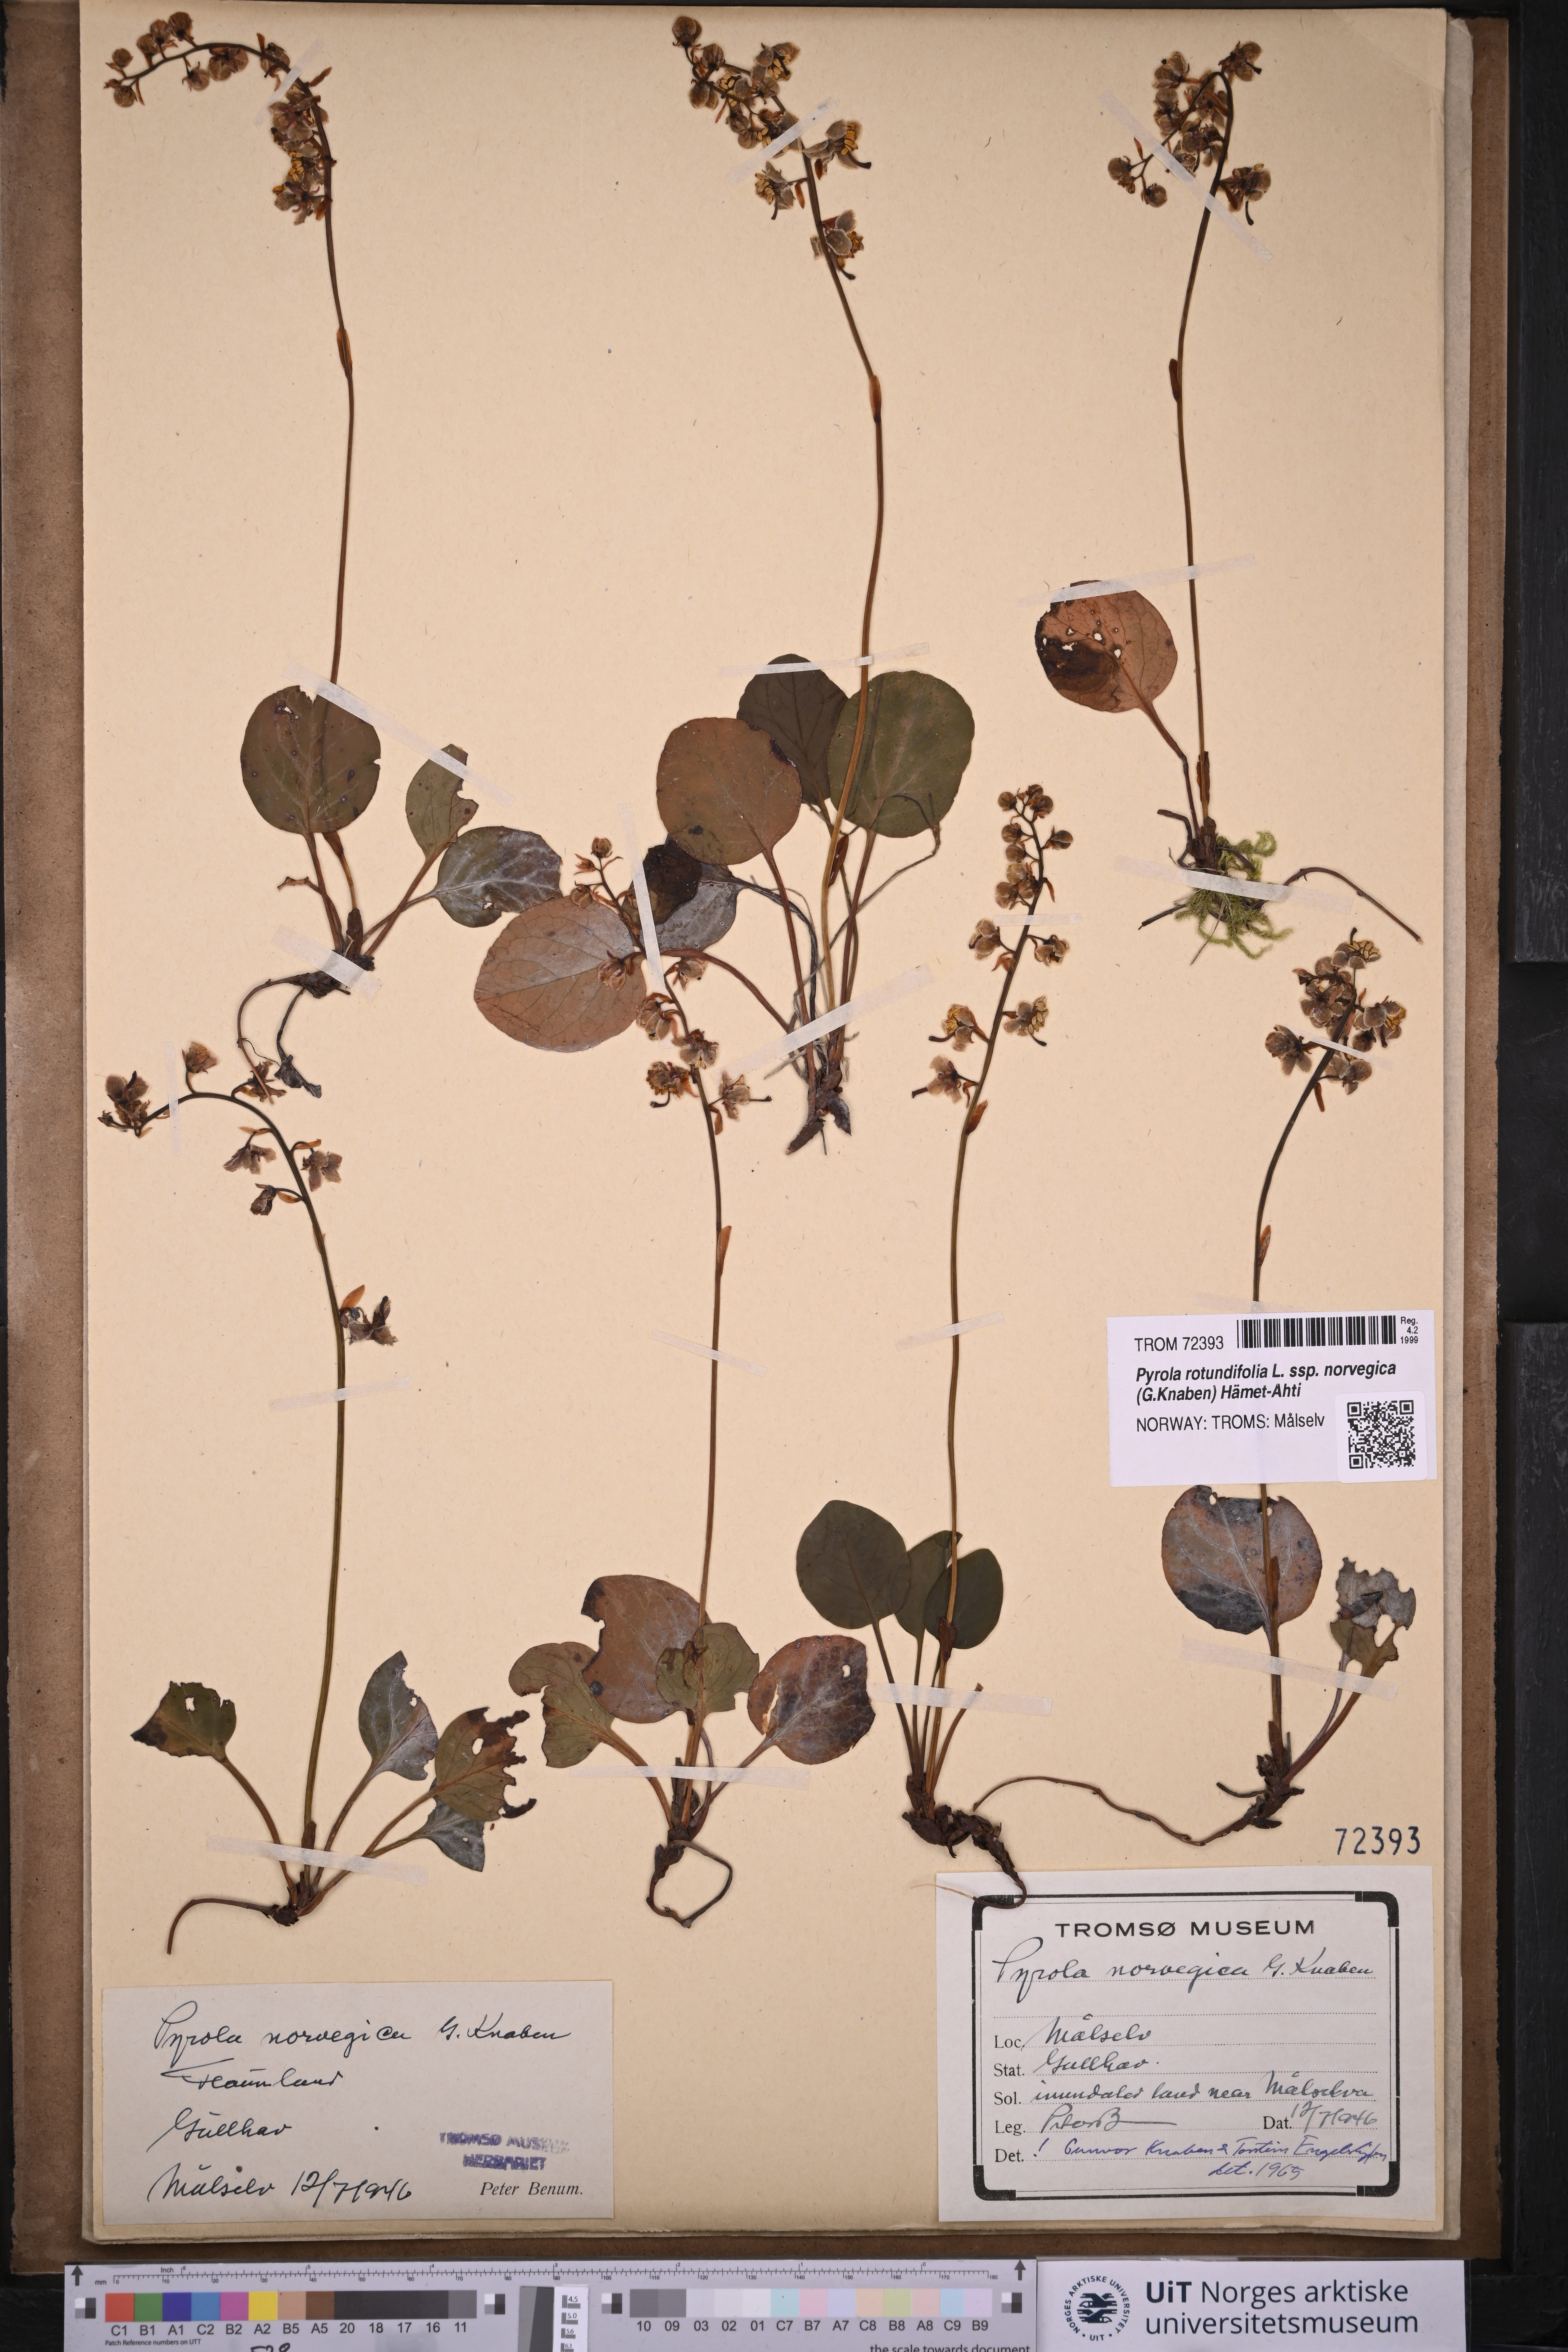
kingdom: Plantae
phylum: Tracheophyta
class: Magnoliopsida
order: Ericales
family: Ericaceae
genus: Pyrola
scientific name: Pyrola rotundifolia
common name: Round-leaved wintergreen
